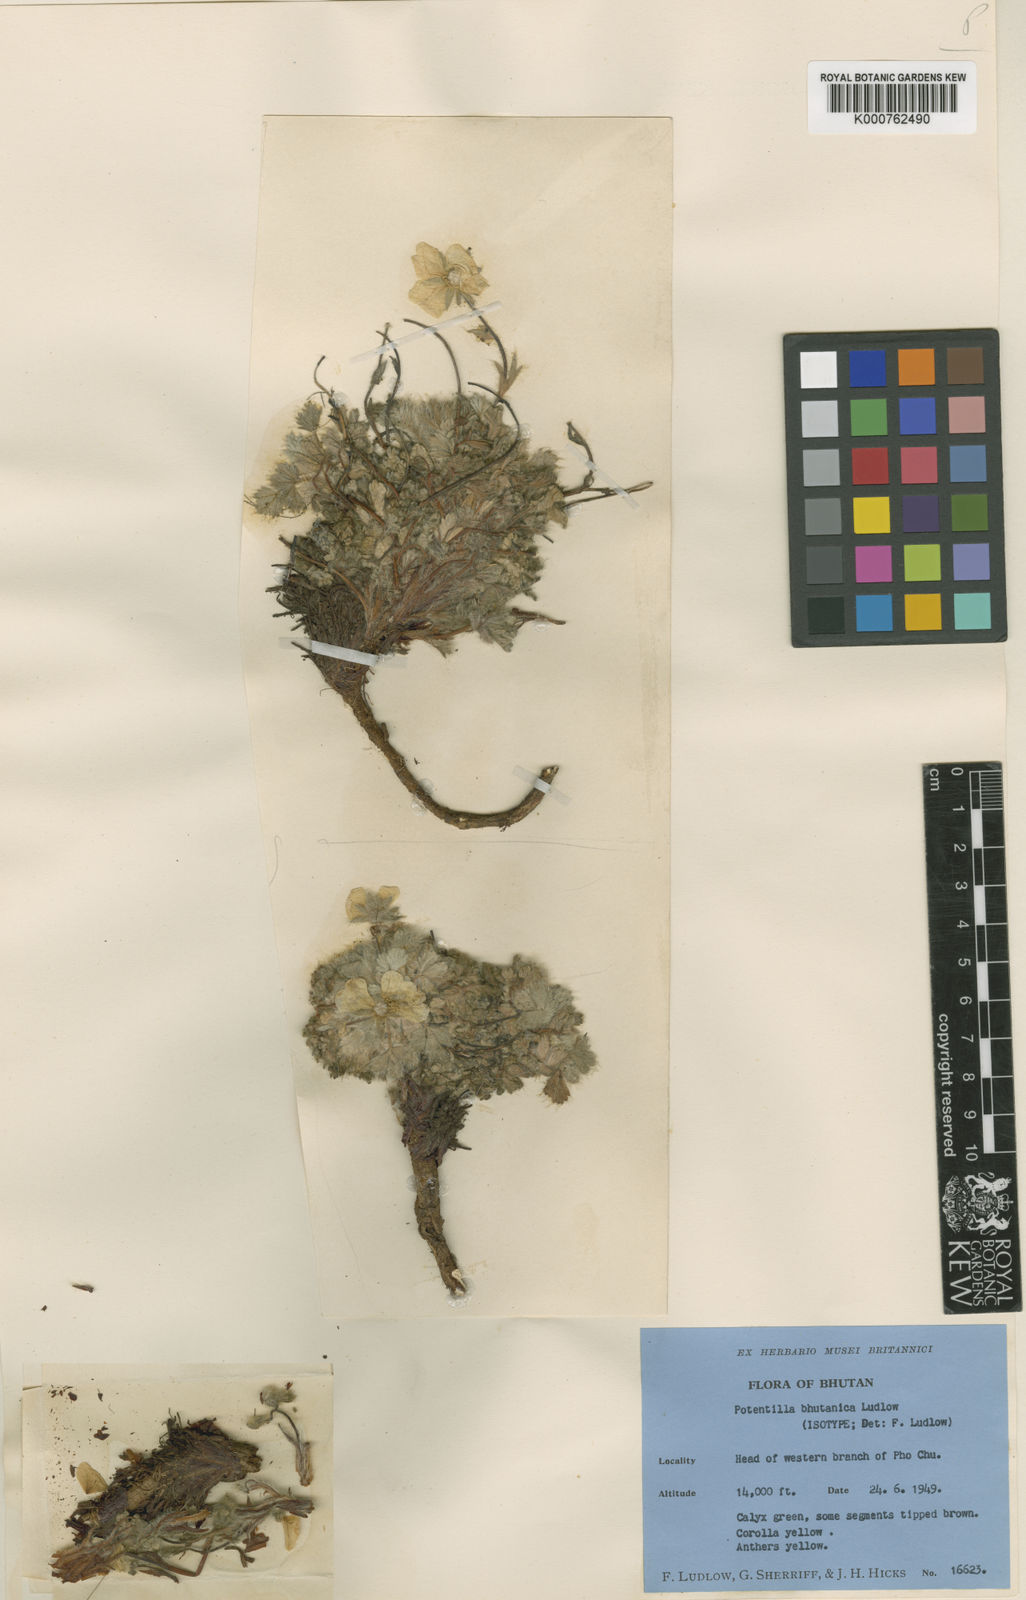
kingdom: Plantae
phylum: Tracheophyta
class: Magnoliopsida
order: Rosales
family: Rosaceae
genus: Potentilla
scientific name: Potentilla bhutanica
